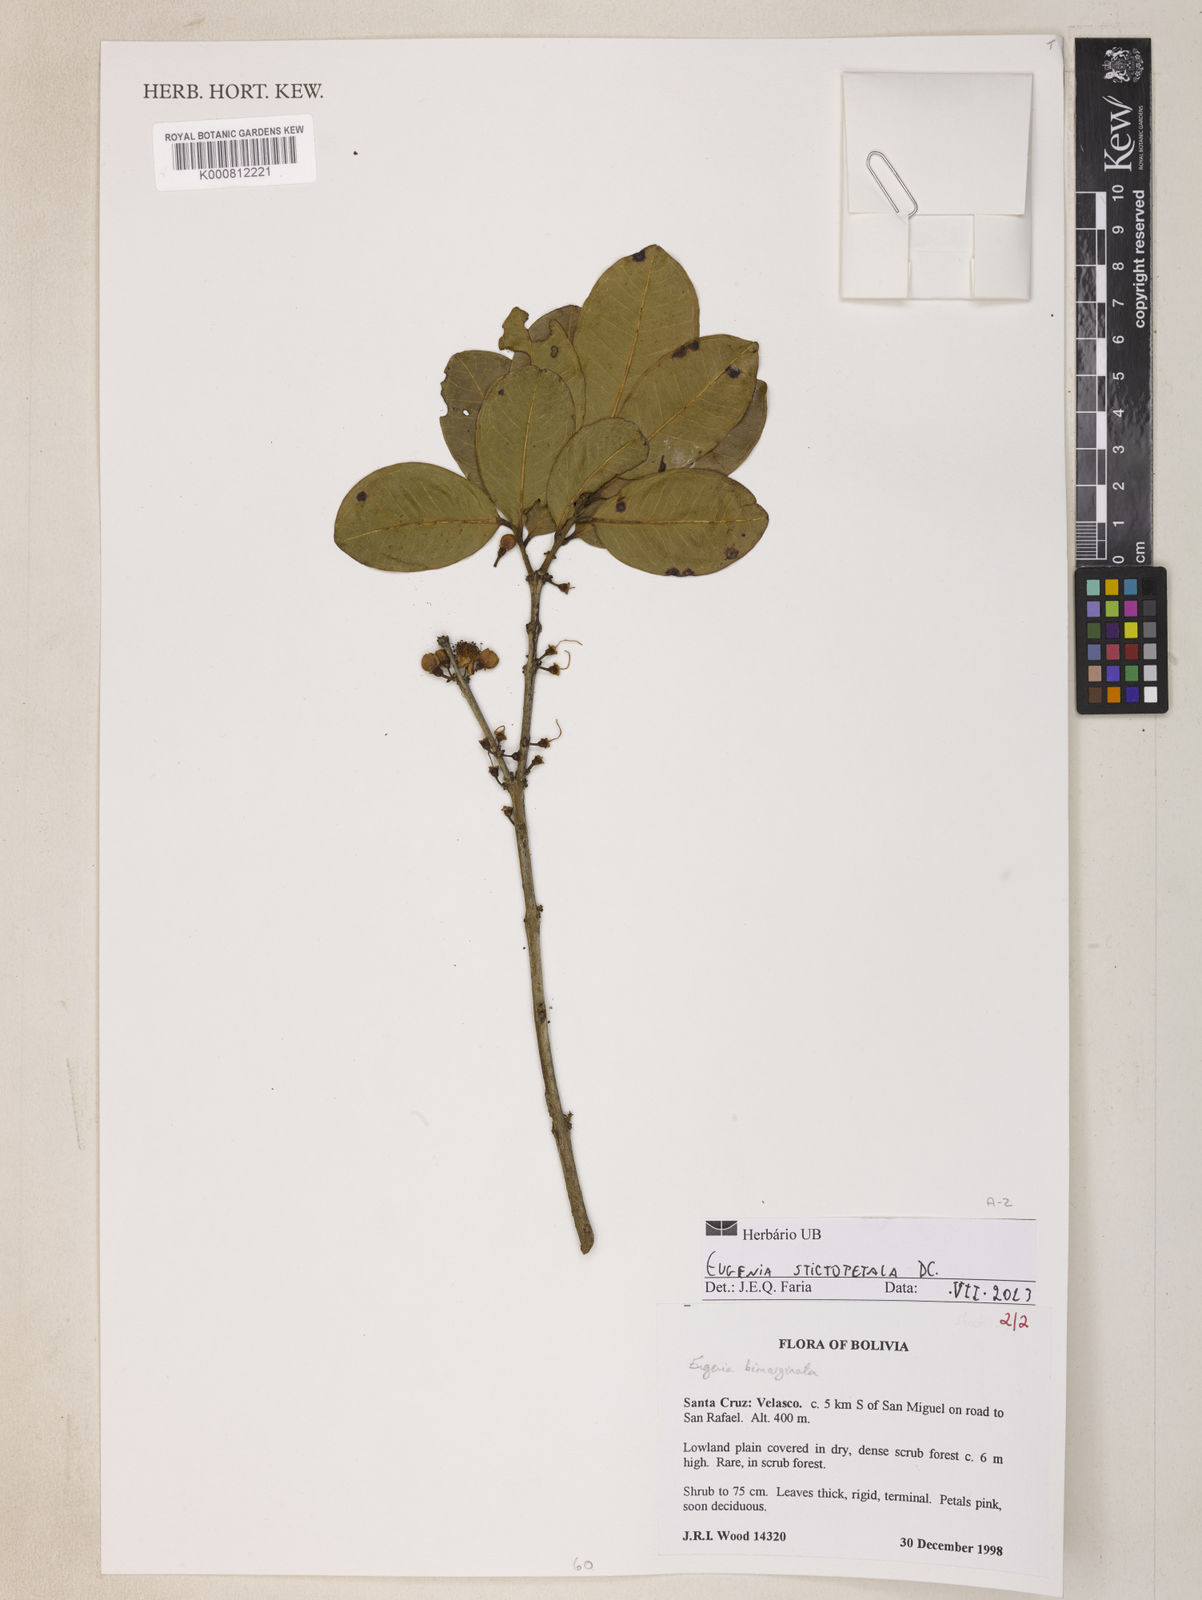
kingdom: Plantae
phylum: Tracheophyta
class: Magnoliopsida
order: Myrtales
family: Myrtaceae
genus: Eugenia
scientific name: Eugenia stictopetala
